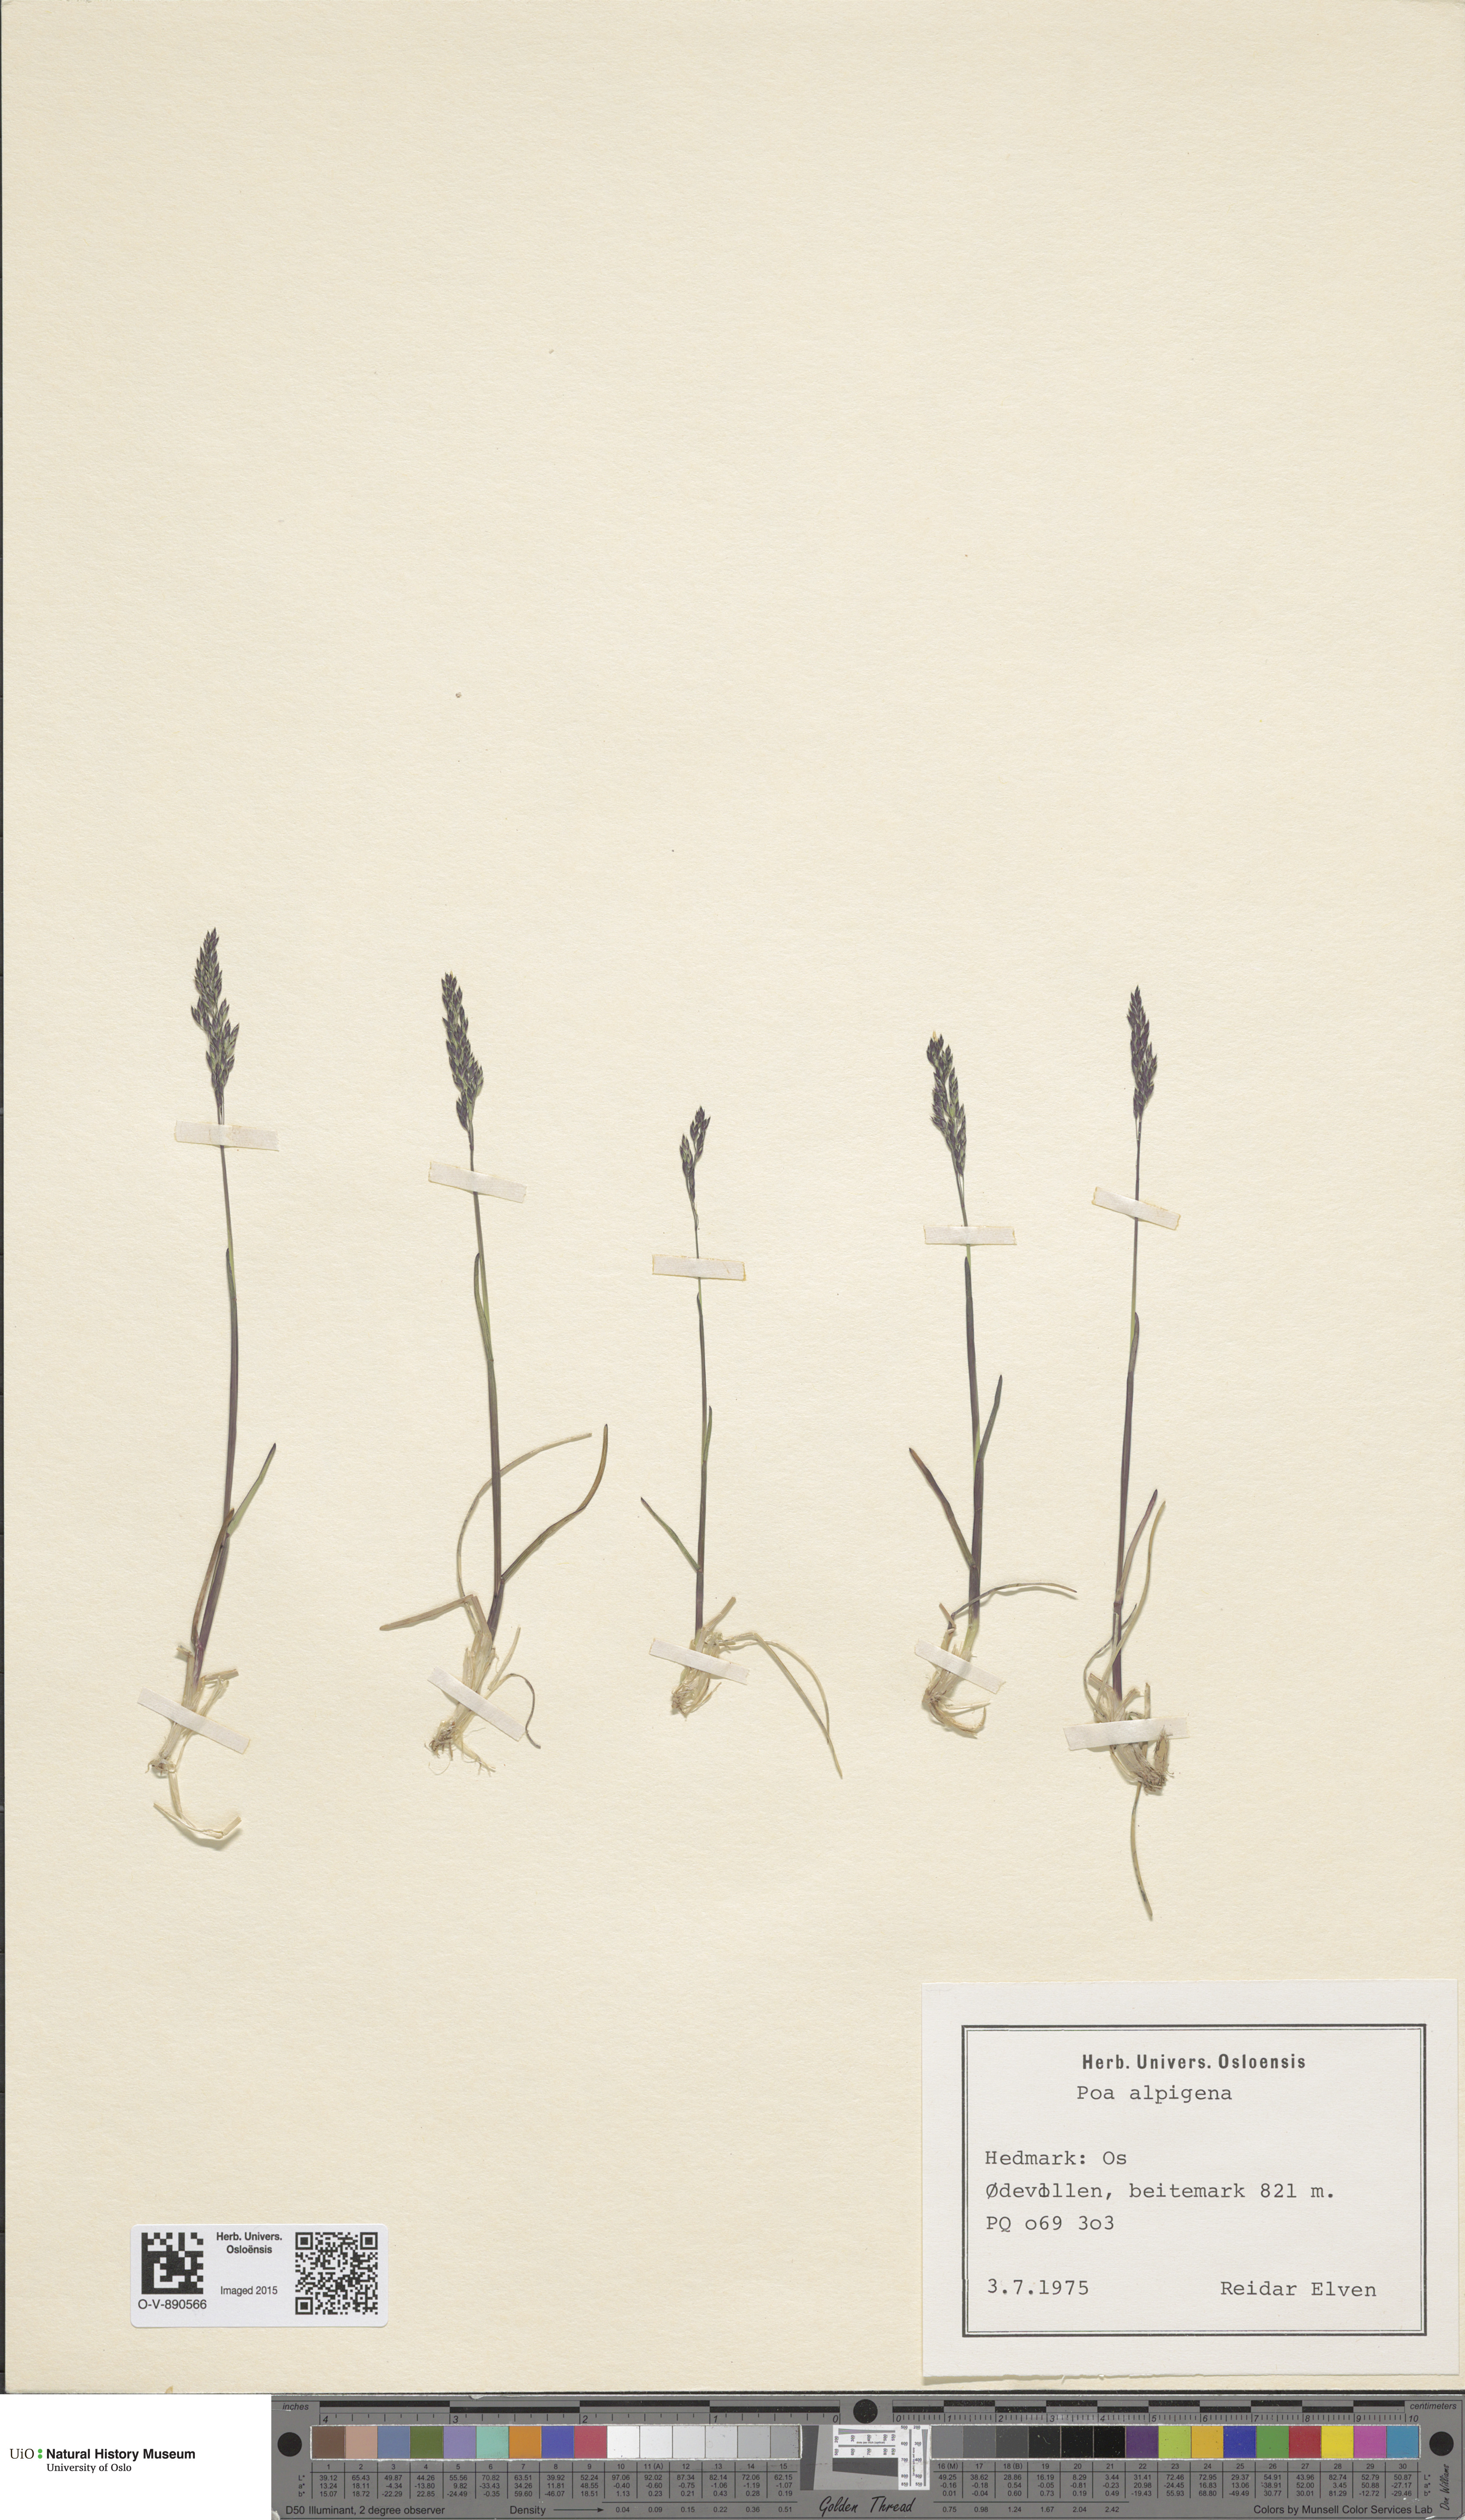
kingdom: Plantae
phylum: Tracheophyta
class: Liliopsida
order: Poales
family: Poaceae
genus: Poa
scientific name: Poa alpigena
